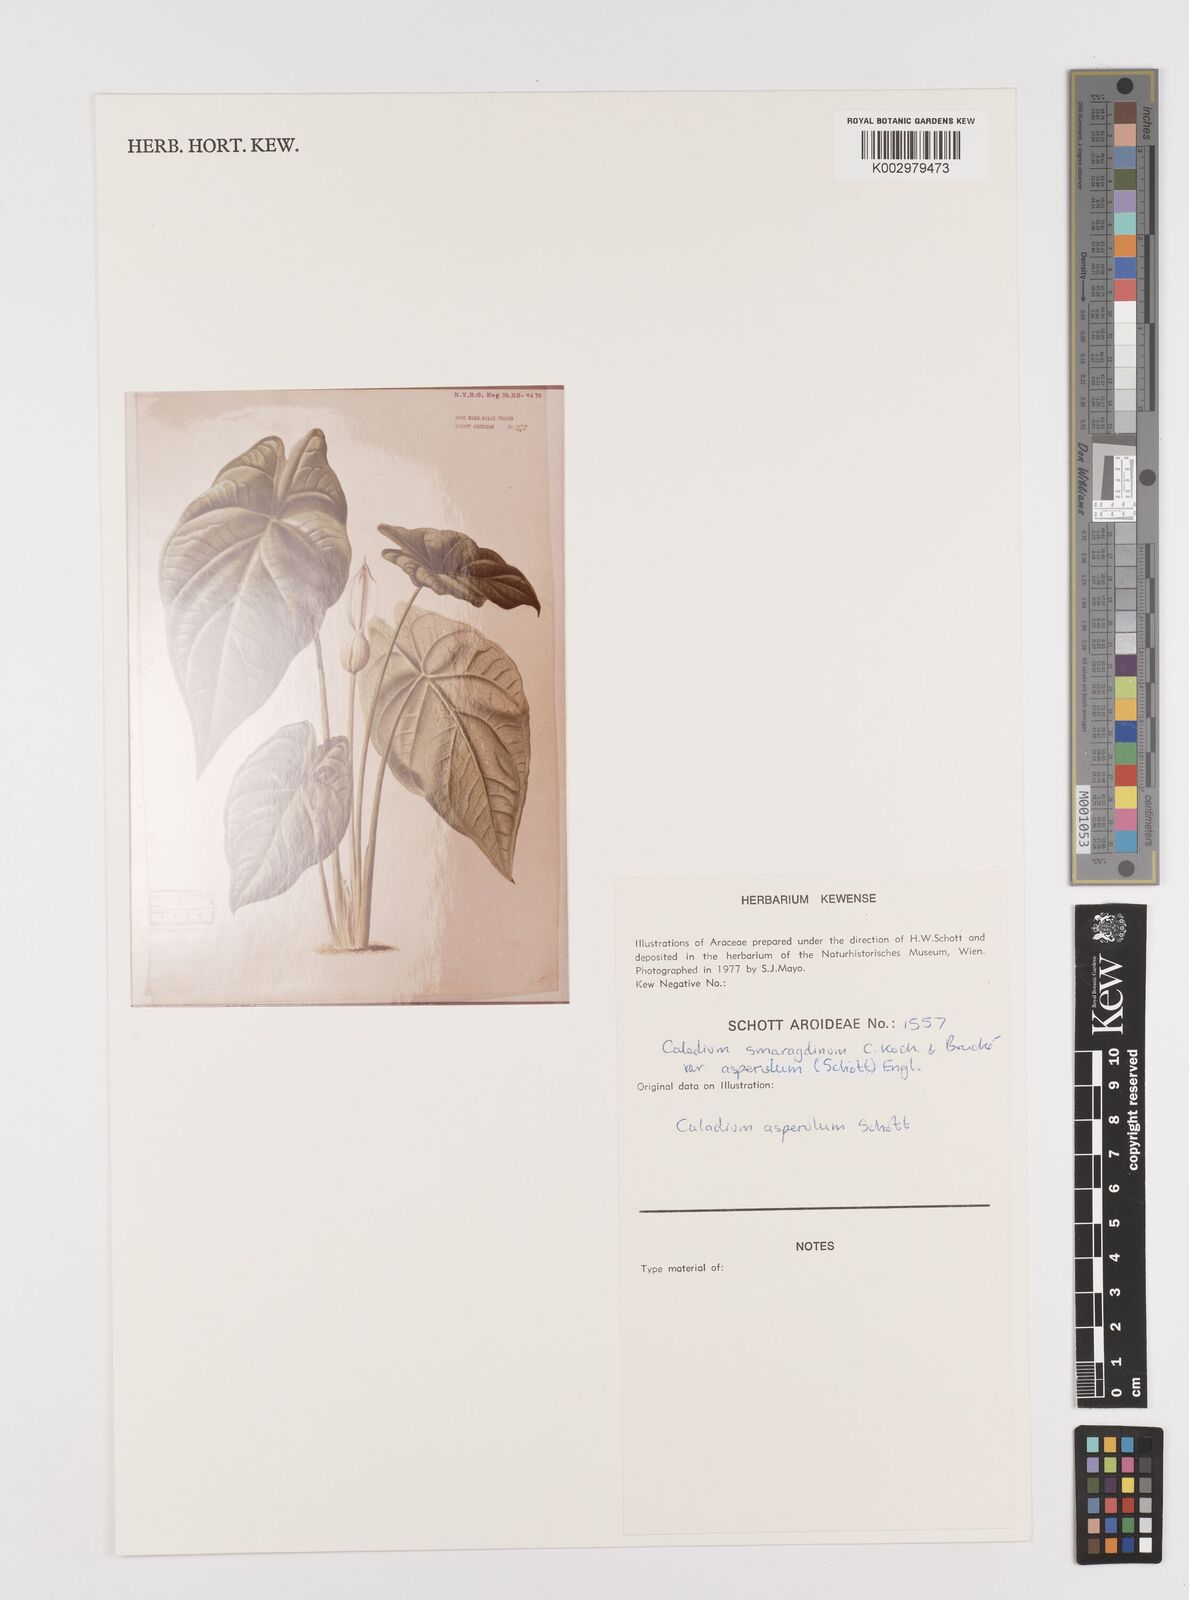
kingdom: Plantae
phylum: Tracheophyta
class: Liliopsida
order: Alismatales
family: Araceae
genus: Caladium
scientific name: Caladium smaragdinum
